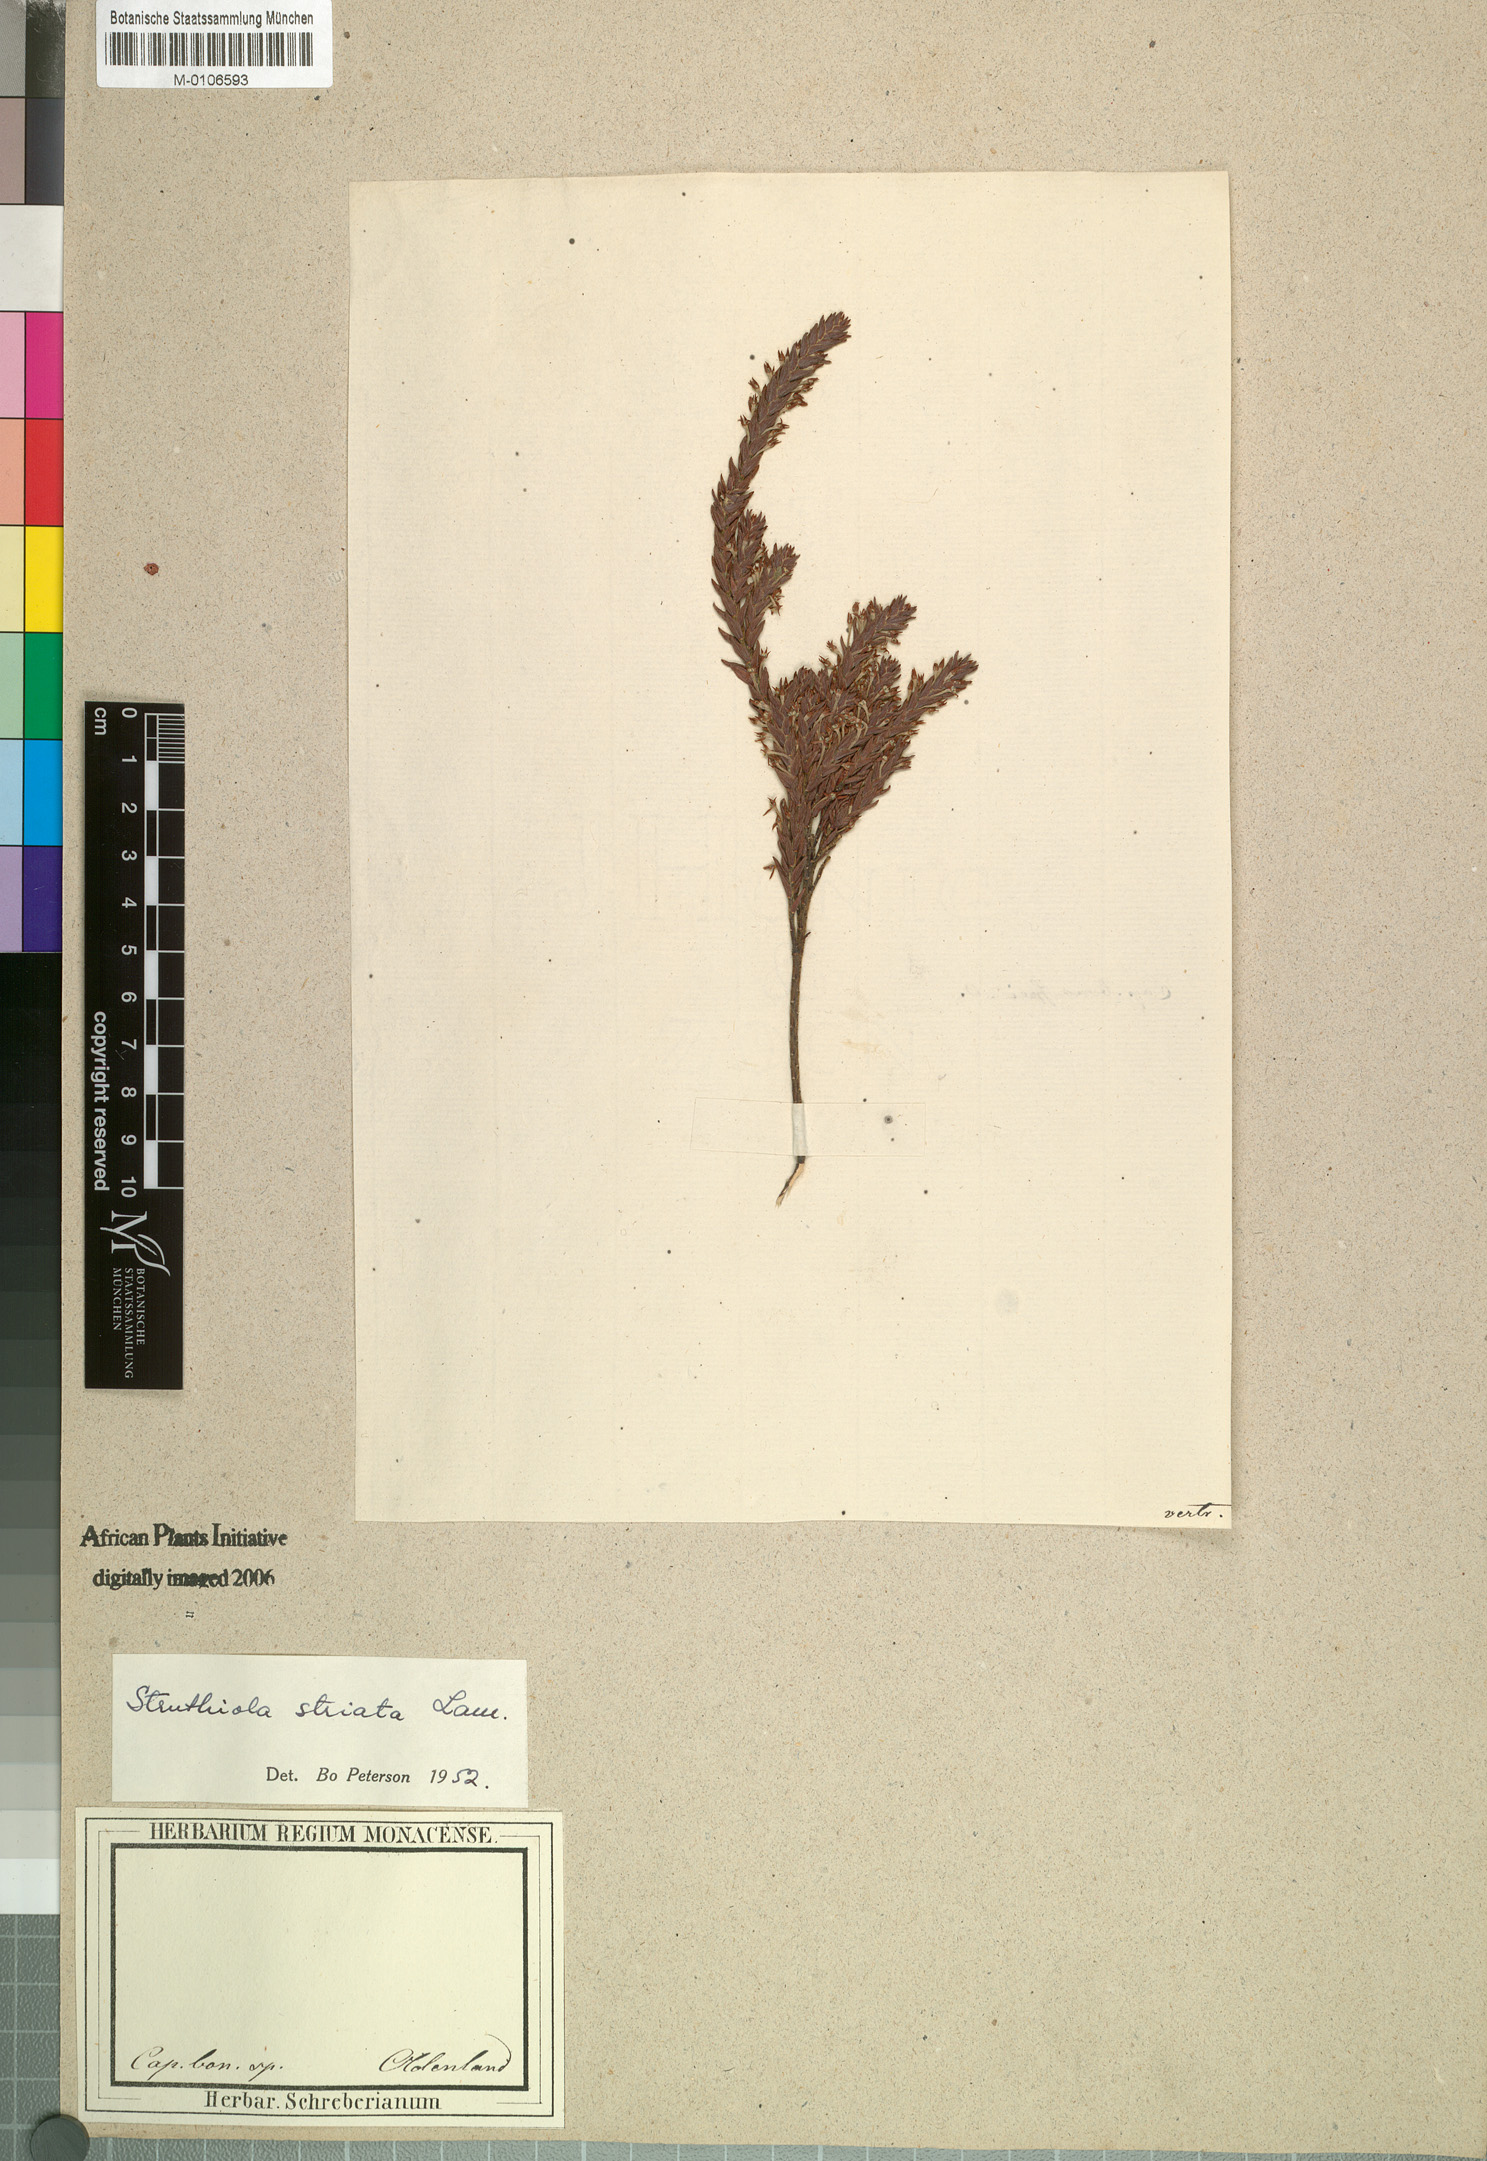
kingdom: Plantae
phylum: Tracheophyta
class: Magnoliopsida
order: Malvales
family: Thymelaeaceae
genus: Struthiola
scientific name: Struthiola striata
